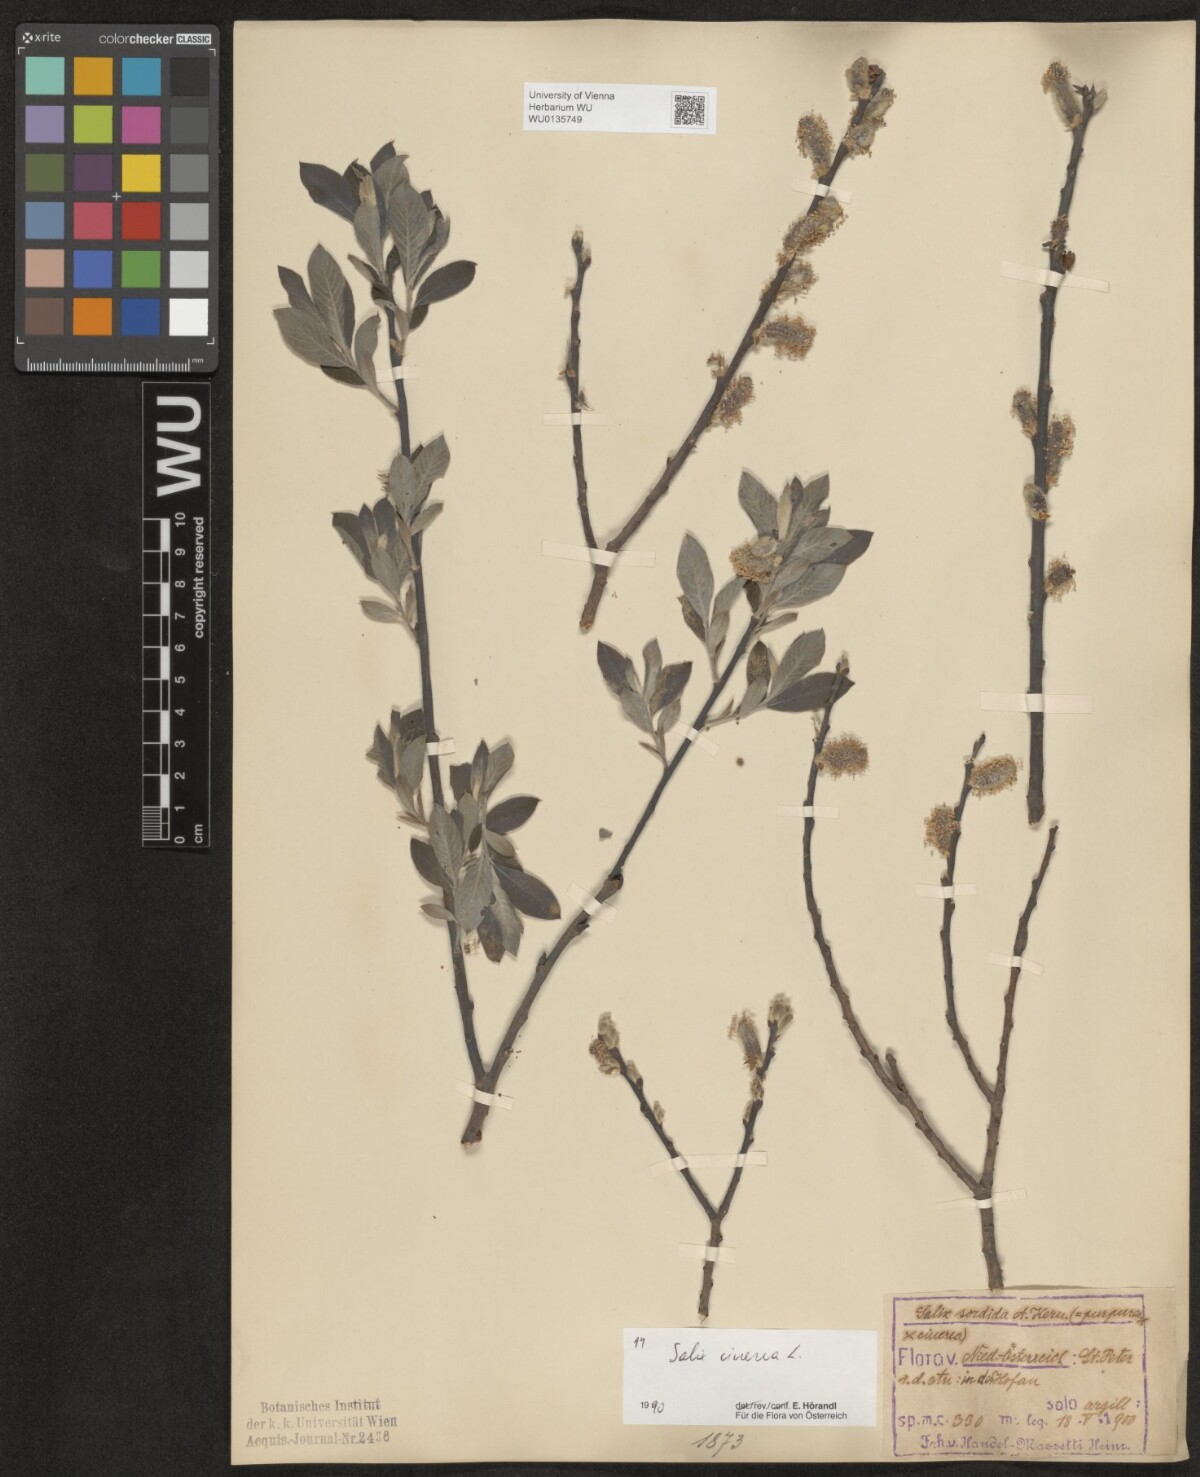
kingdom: Plantae
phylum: Tracheophyta
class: Magnoliopsida
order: Malpighiales
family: Salicaceae
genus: Salix
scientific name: Salix cinerea
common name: Common sallow
